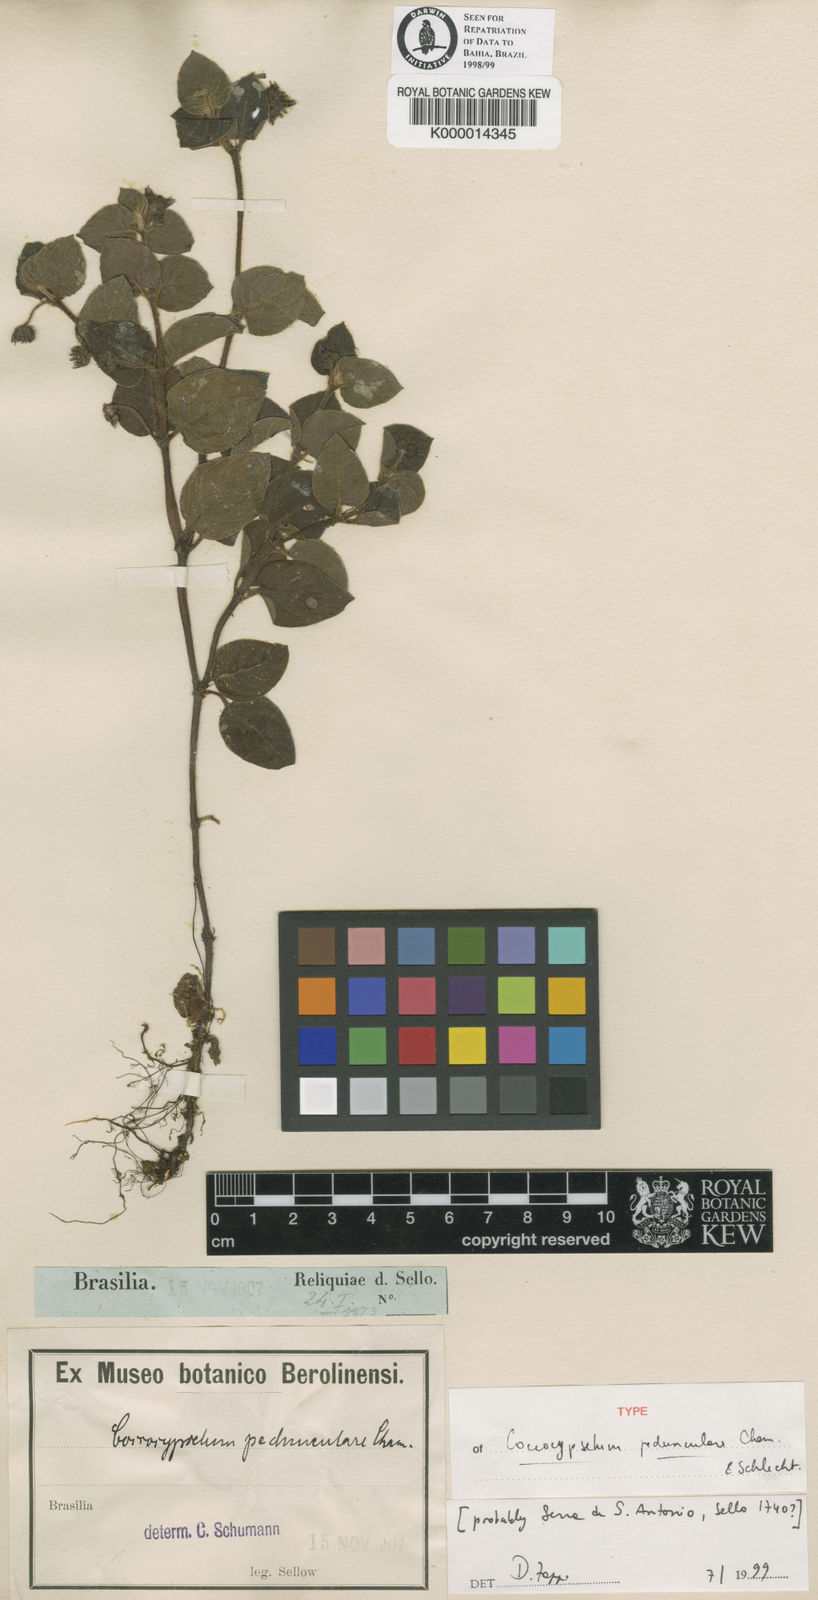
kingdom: Plantae
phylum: Tracheophyta
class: Magnoliopsida
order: Gentianales
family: Rubiaceae
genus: Coccocypselum
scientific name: Coccocypselum aureum
